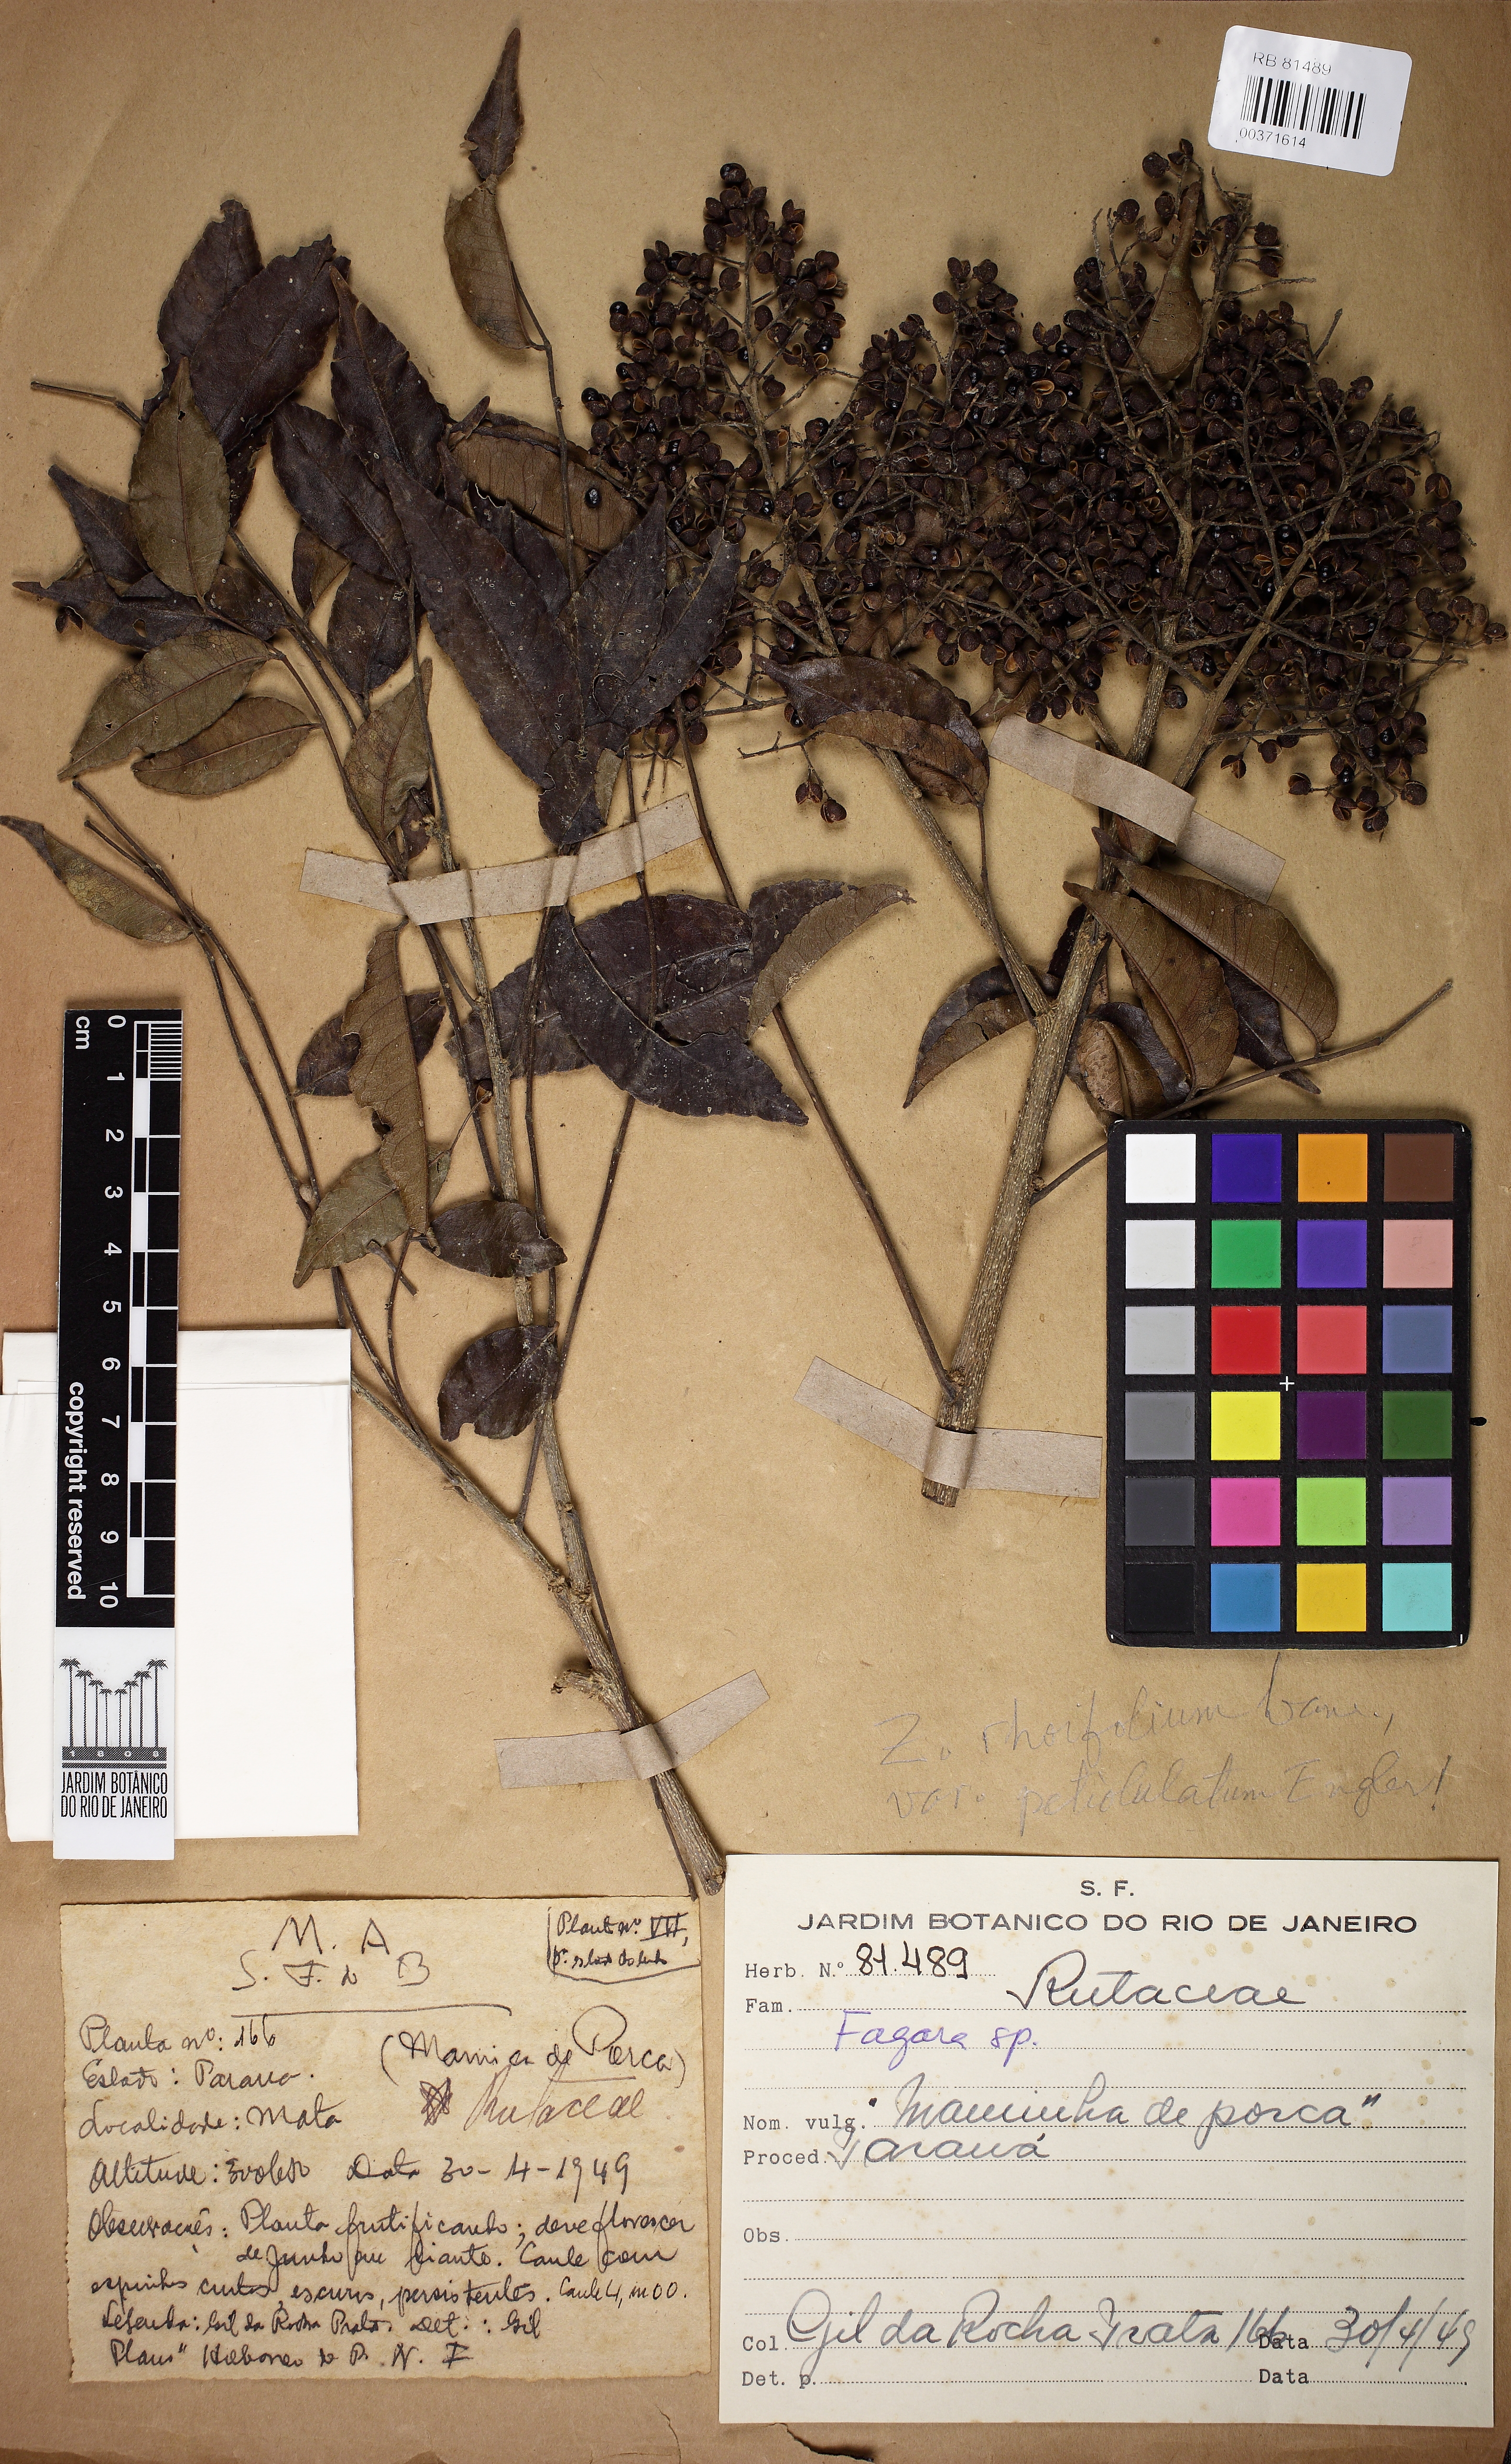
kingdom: Plantae
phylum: Tracheophyta
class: Magnoliopsida
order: Sapindales
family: Rutaceae
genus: Zanthoxylum
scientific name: Zanthoxylum rhoifolium
